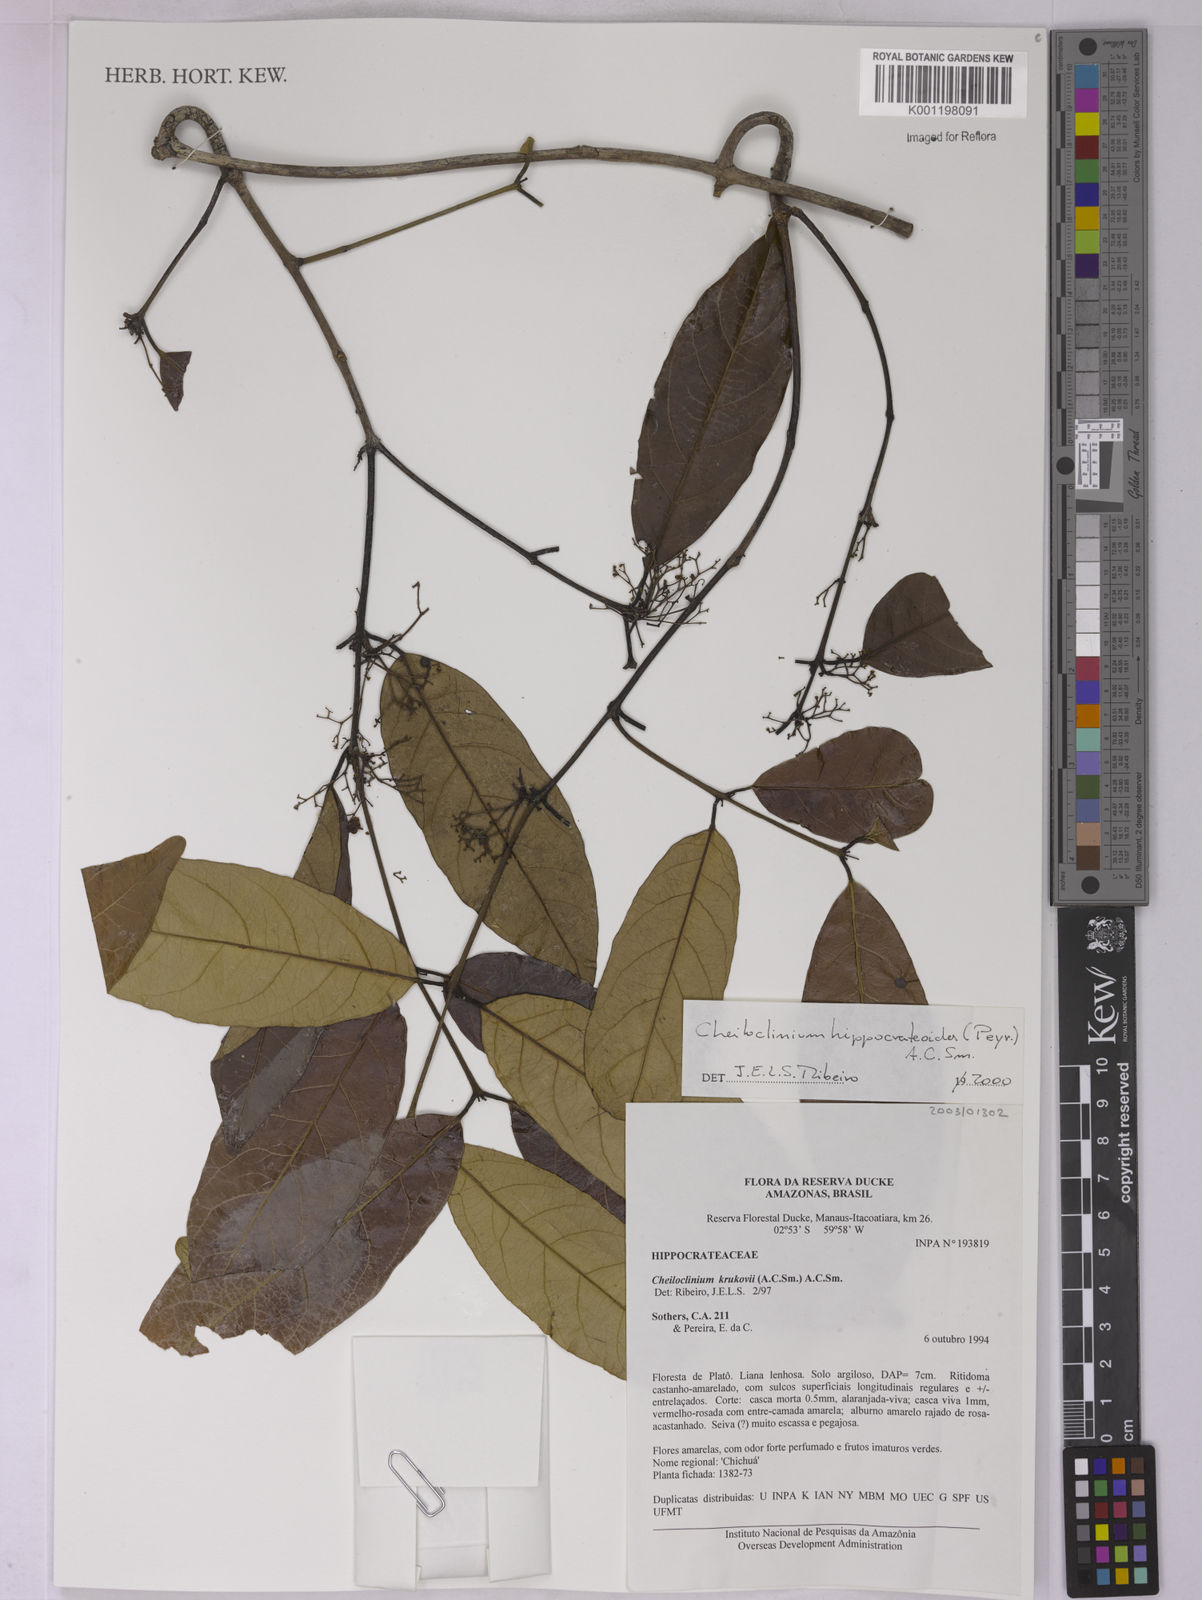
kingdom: Plantae
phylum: Tracheophyta
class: Magnoliopsida
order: Celastrales
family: Celastraceae
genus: Cheiloclinium
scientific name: Cheiloclinium hippocrateoides
